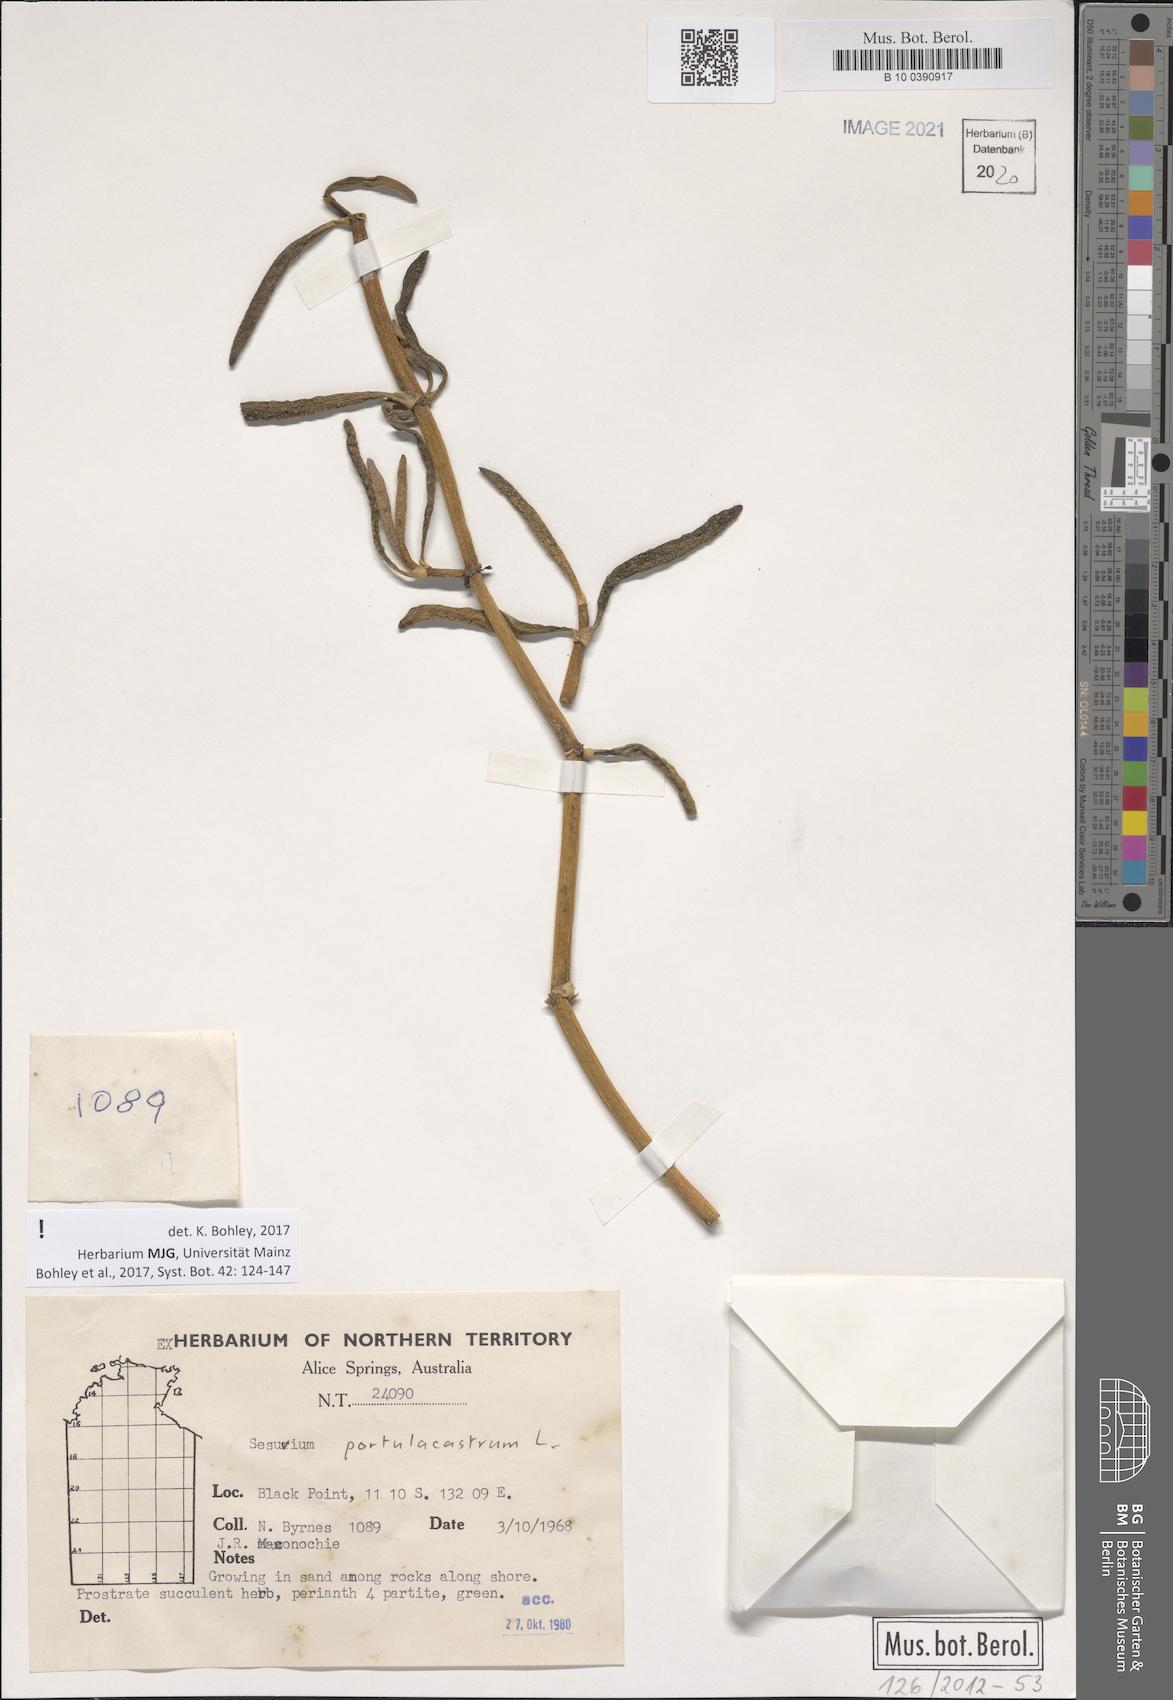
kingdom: Plantae
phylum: Tracheophyta
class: Magnoliopsida
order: Caryophyllales
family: Aizoaceae
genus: Sesuvium
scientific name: Sesuvium portulacastrum
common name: Sea-purslane
